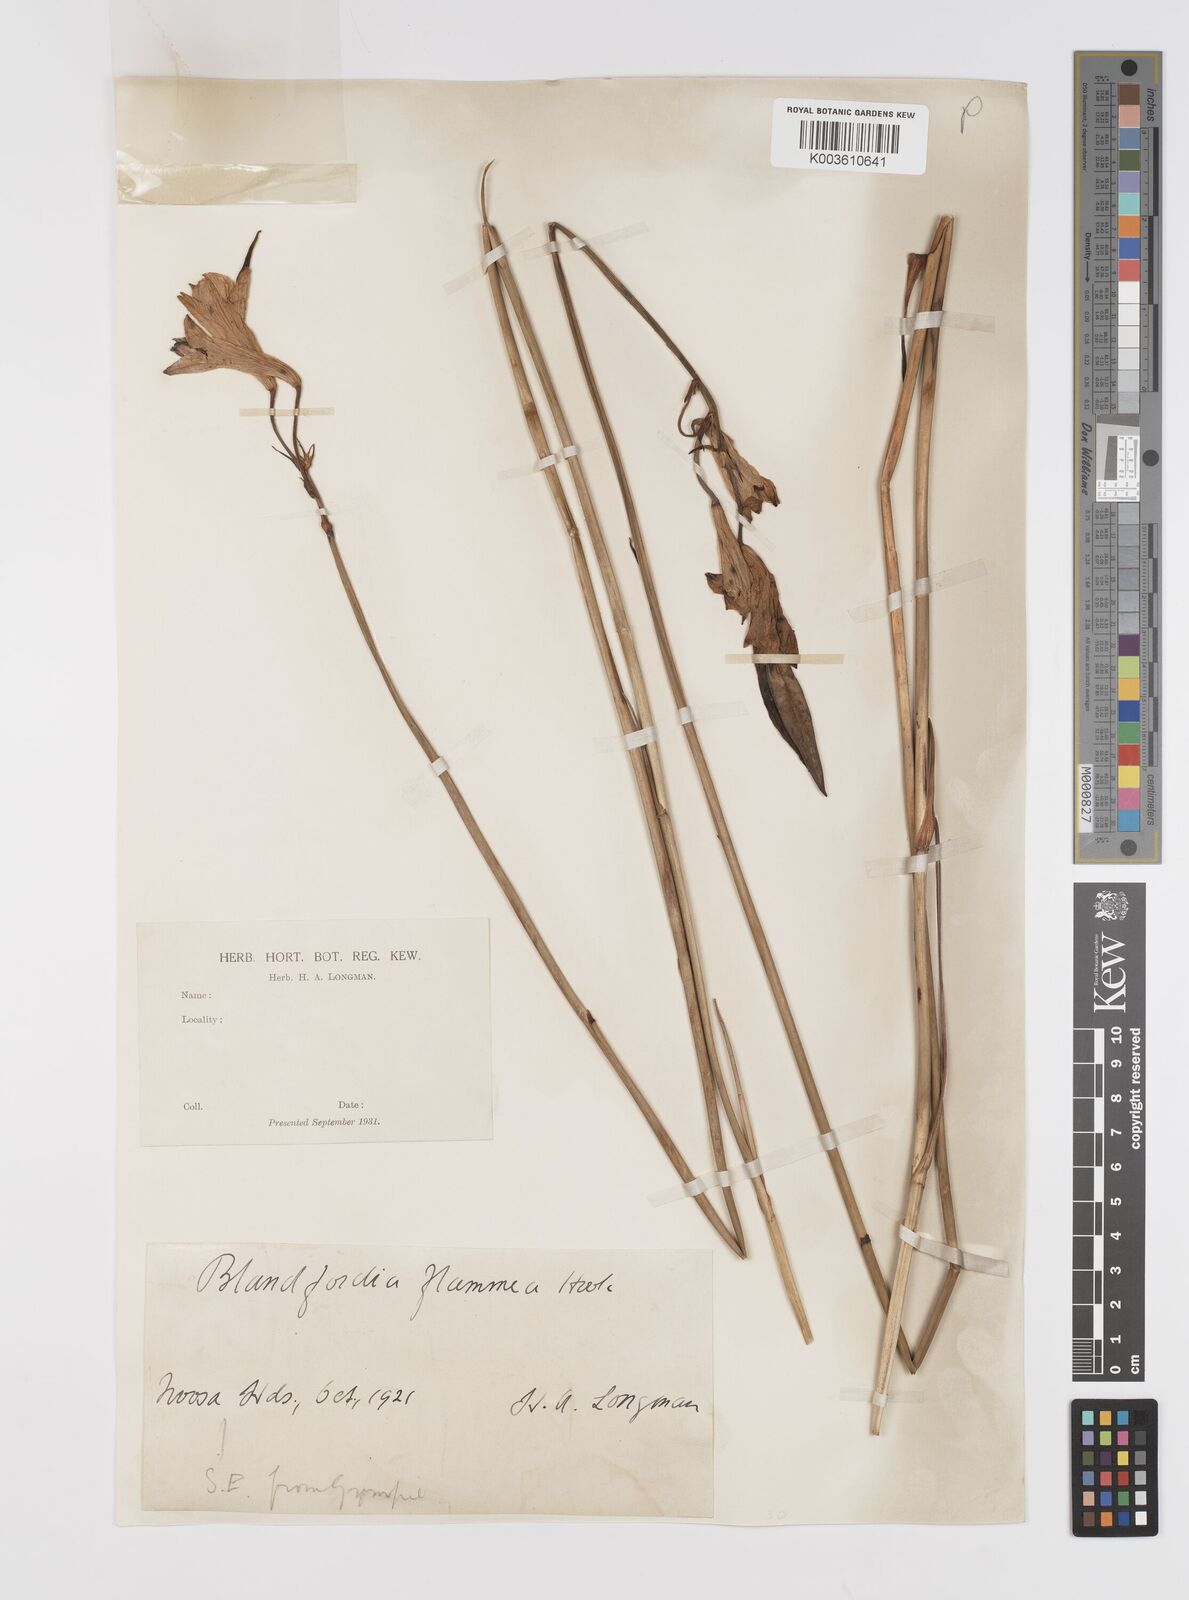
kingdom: Plantae
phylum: Tracheophyta
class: Liliopsida
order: Asparagales
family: Blandfordiaceae
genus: Blandfordia
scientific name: Blandfordia punicea
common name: Tasmanian christmas-bell
